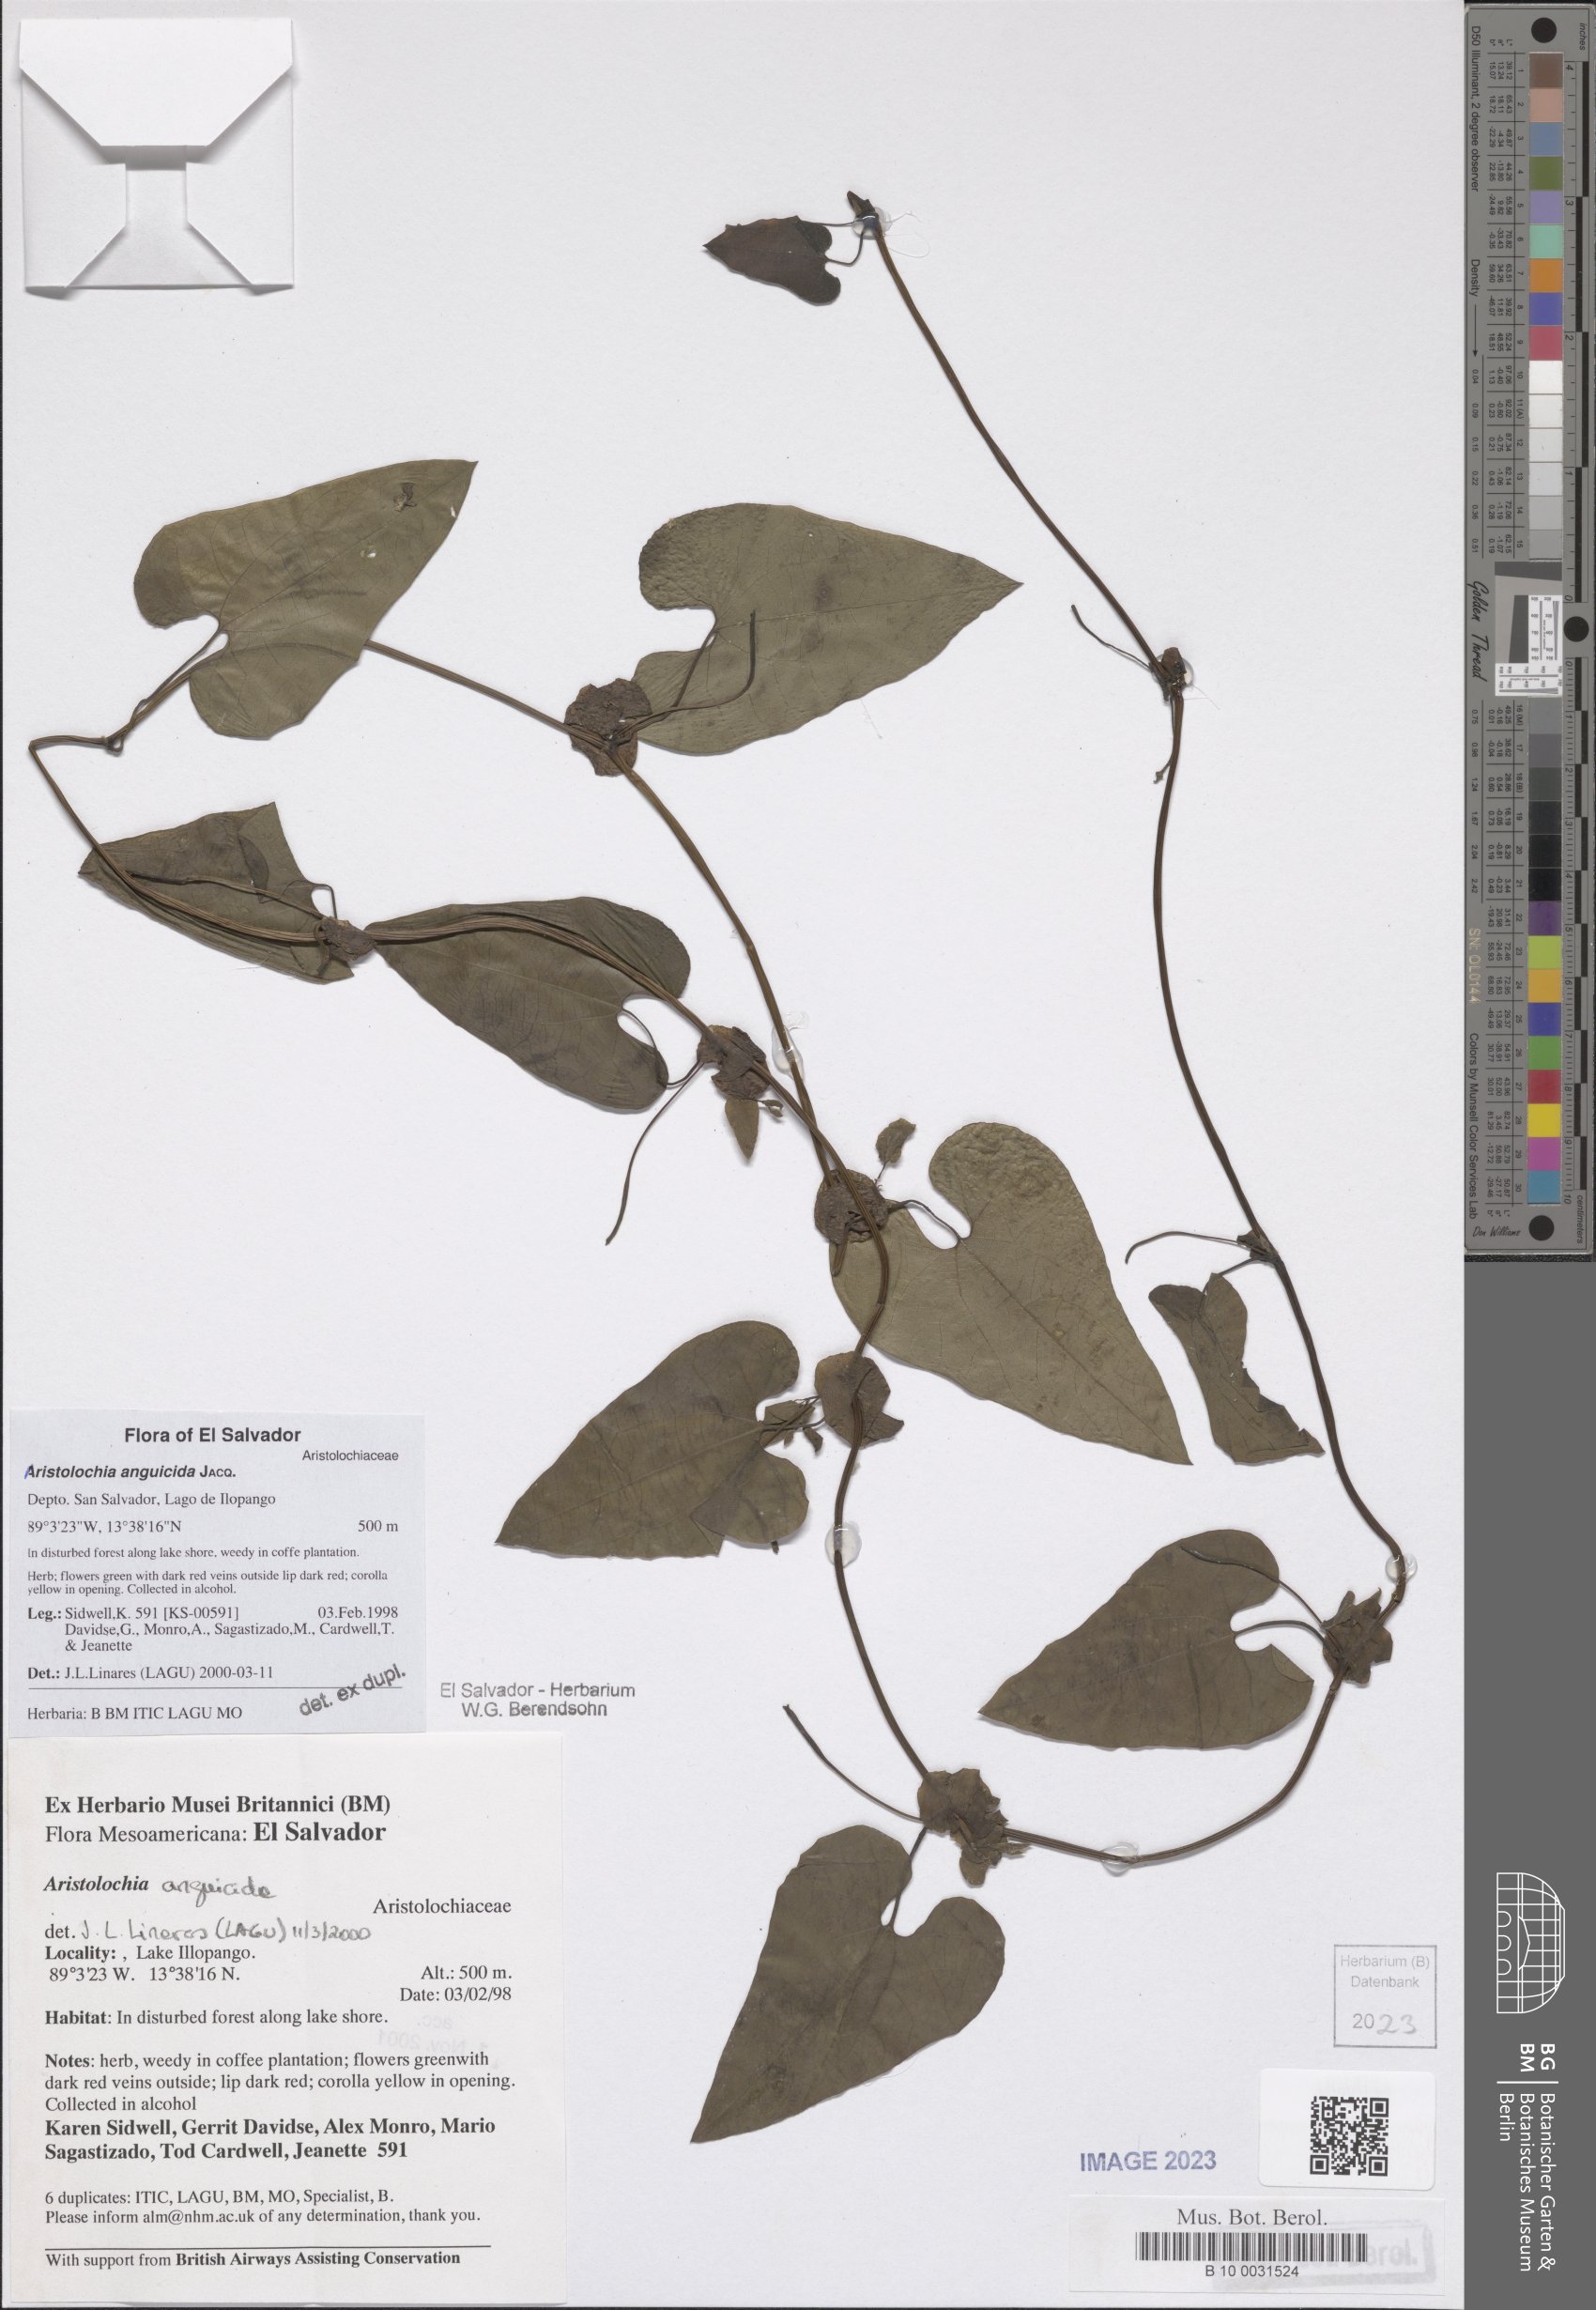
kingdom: Plantae
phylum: Tracheophyta
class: Magnoliopsida
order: Piperales
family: Aristolochiaceae
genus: Aristolochia
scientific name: Aristolochia anguicida
